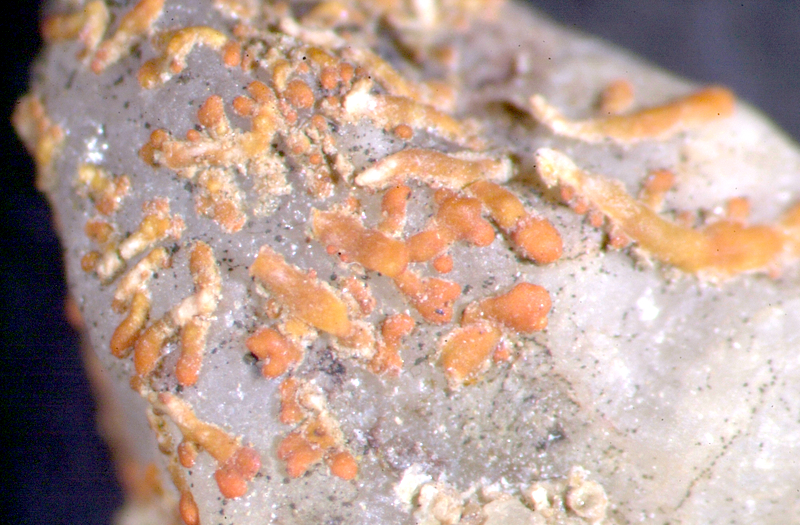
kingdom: Fungi
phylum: Ascomycota
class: Lecanoromycetes
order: Lecanorales
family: Ramalinaceae
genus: Ramalina
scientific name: Ramalina capensis
